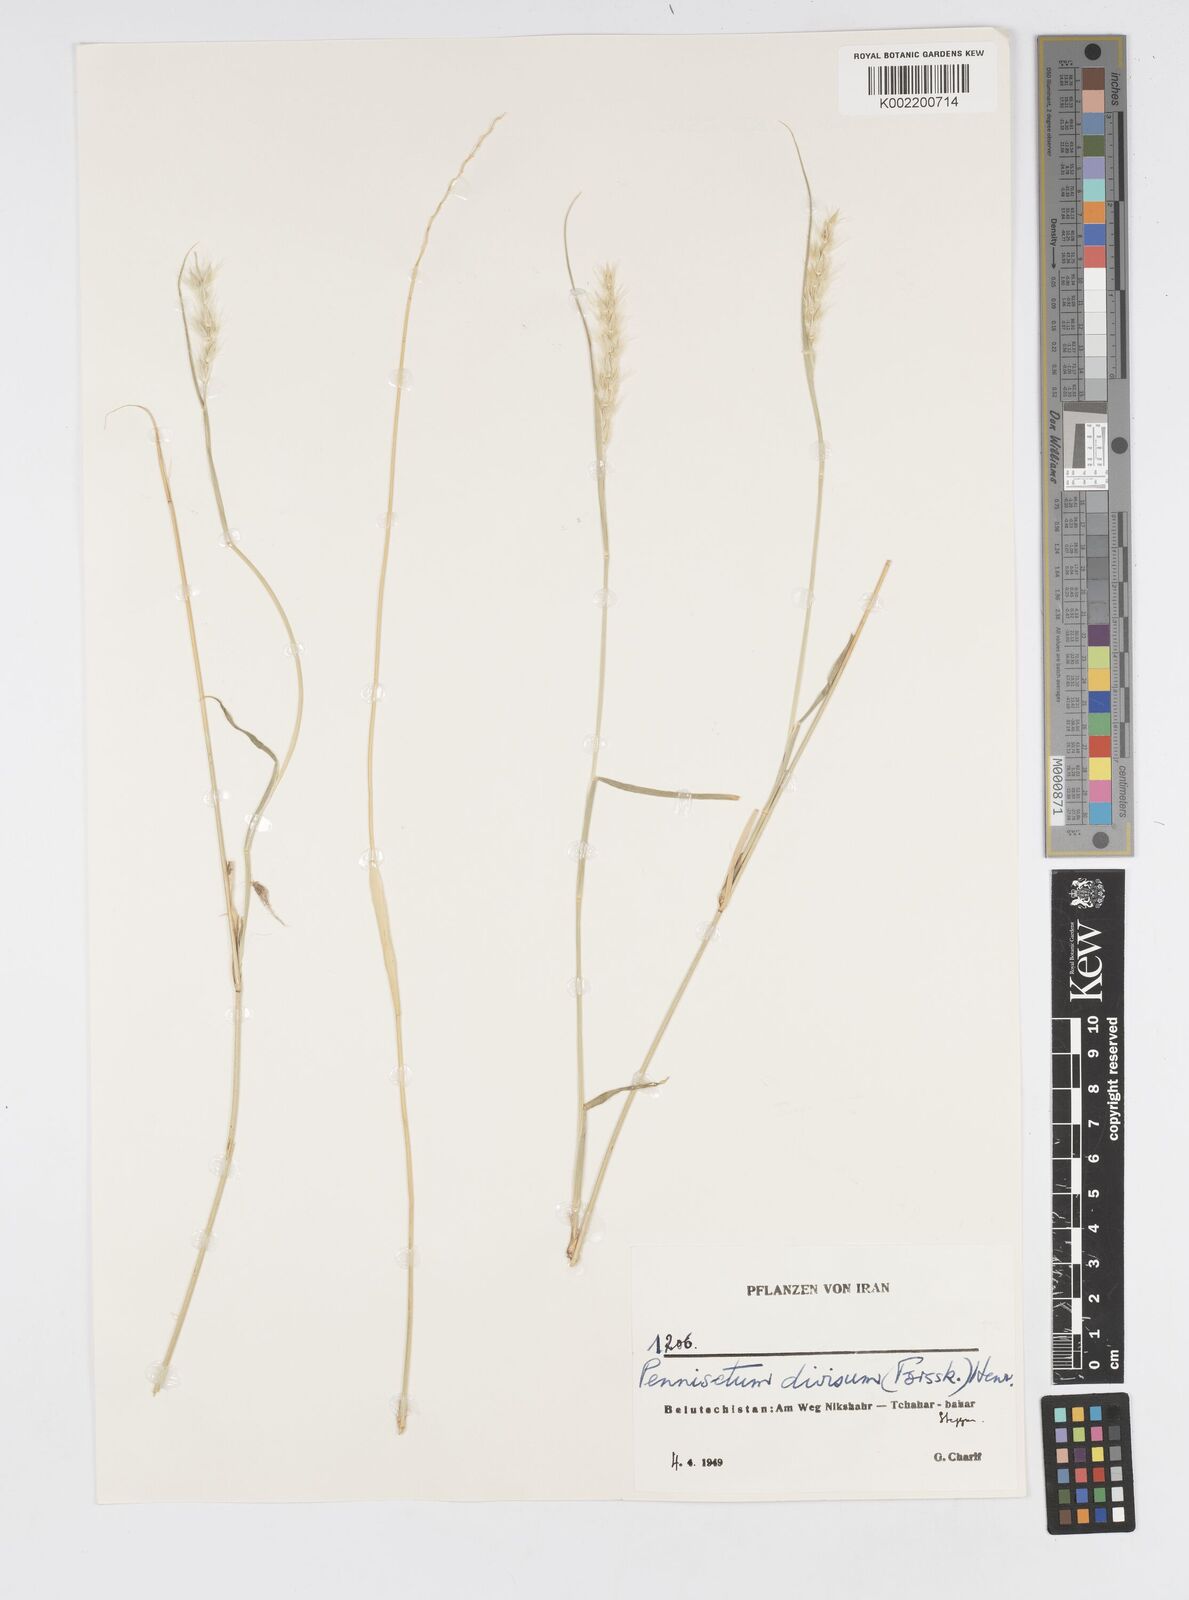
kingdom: Plantae
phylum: Tracheophyta
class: Liliopsida
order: Poales
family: Poaceae
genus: Cenchrus
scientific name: Cenchrus divisus
